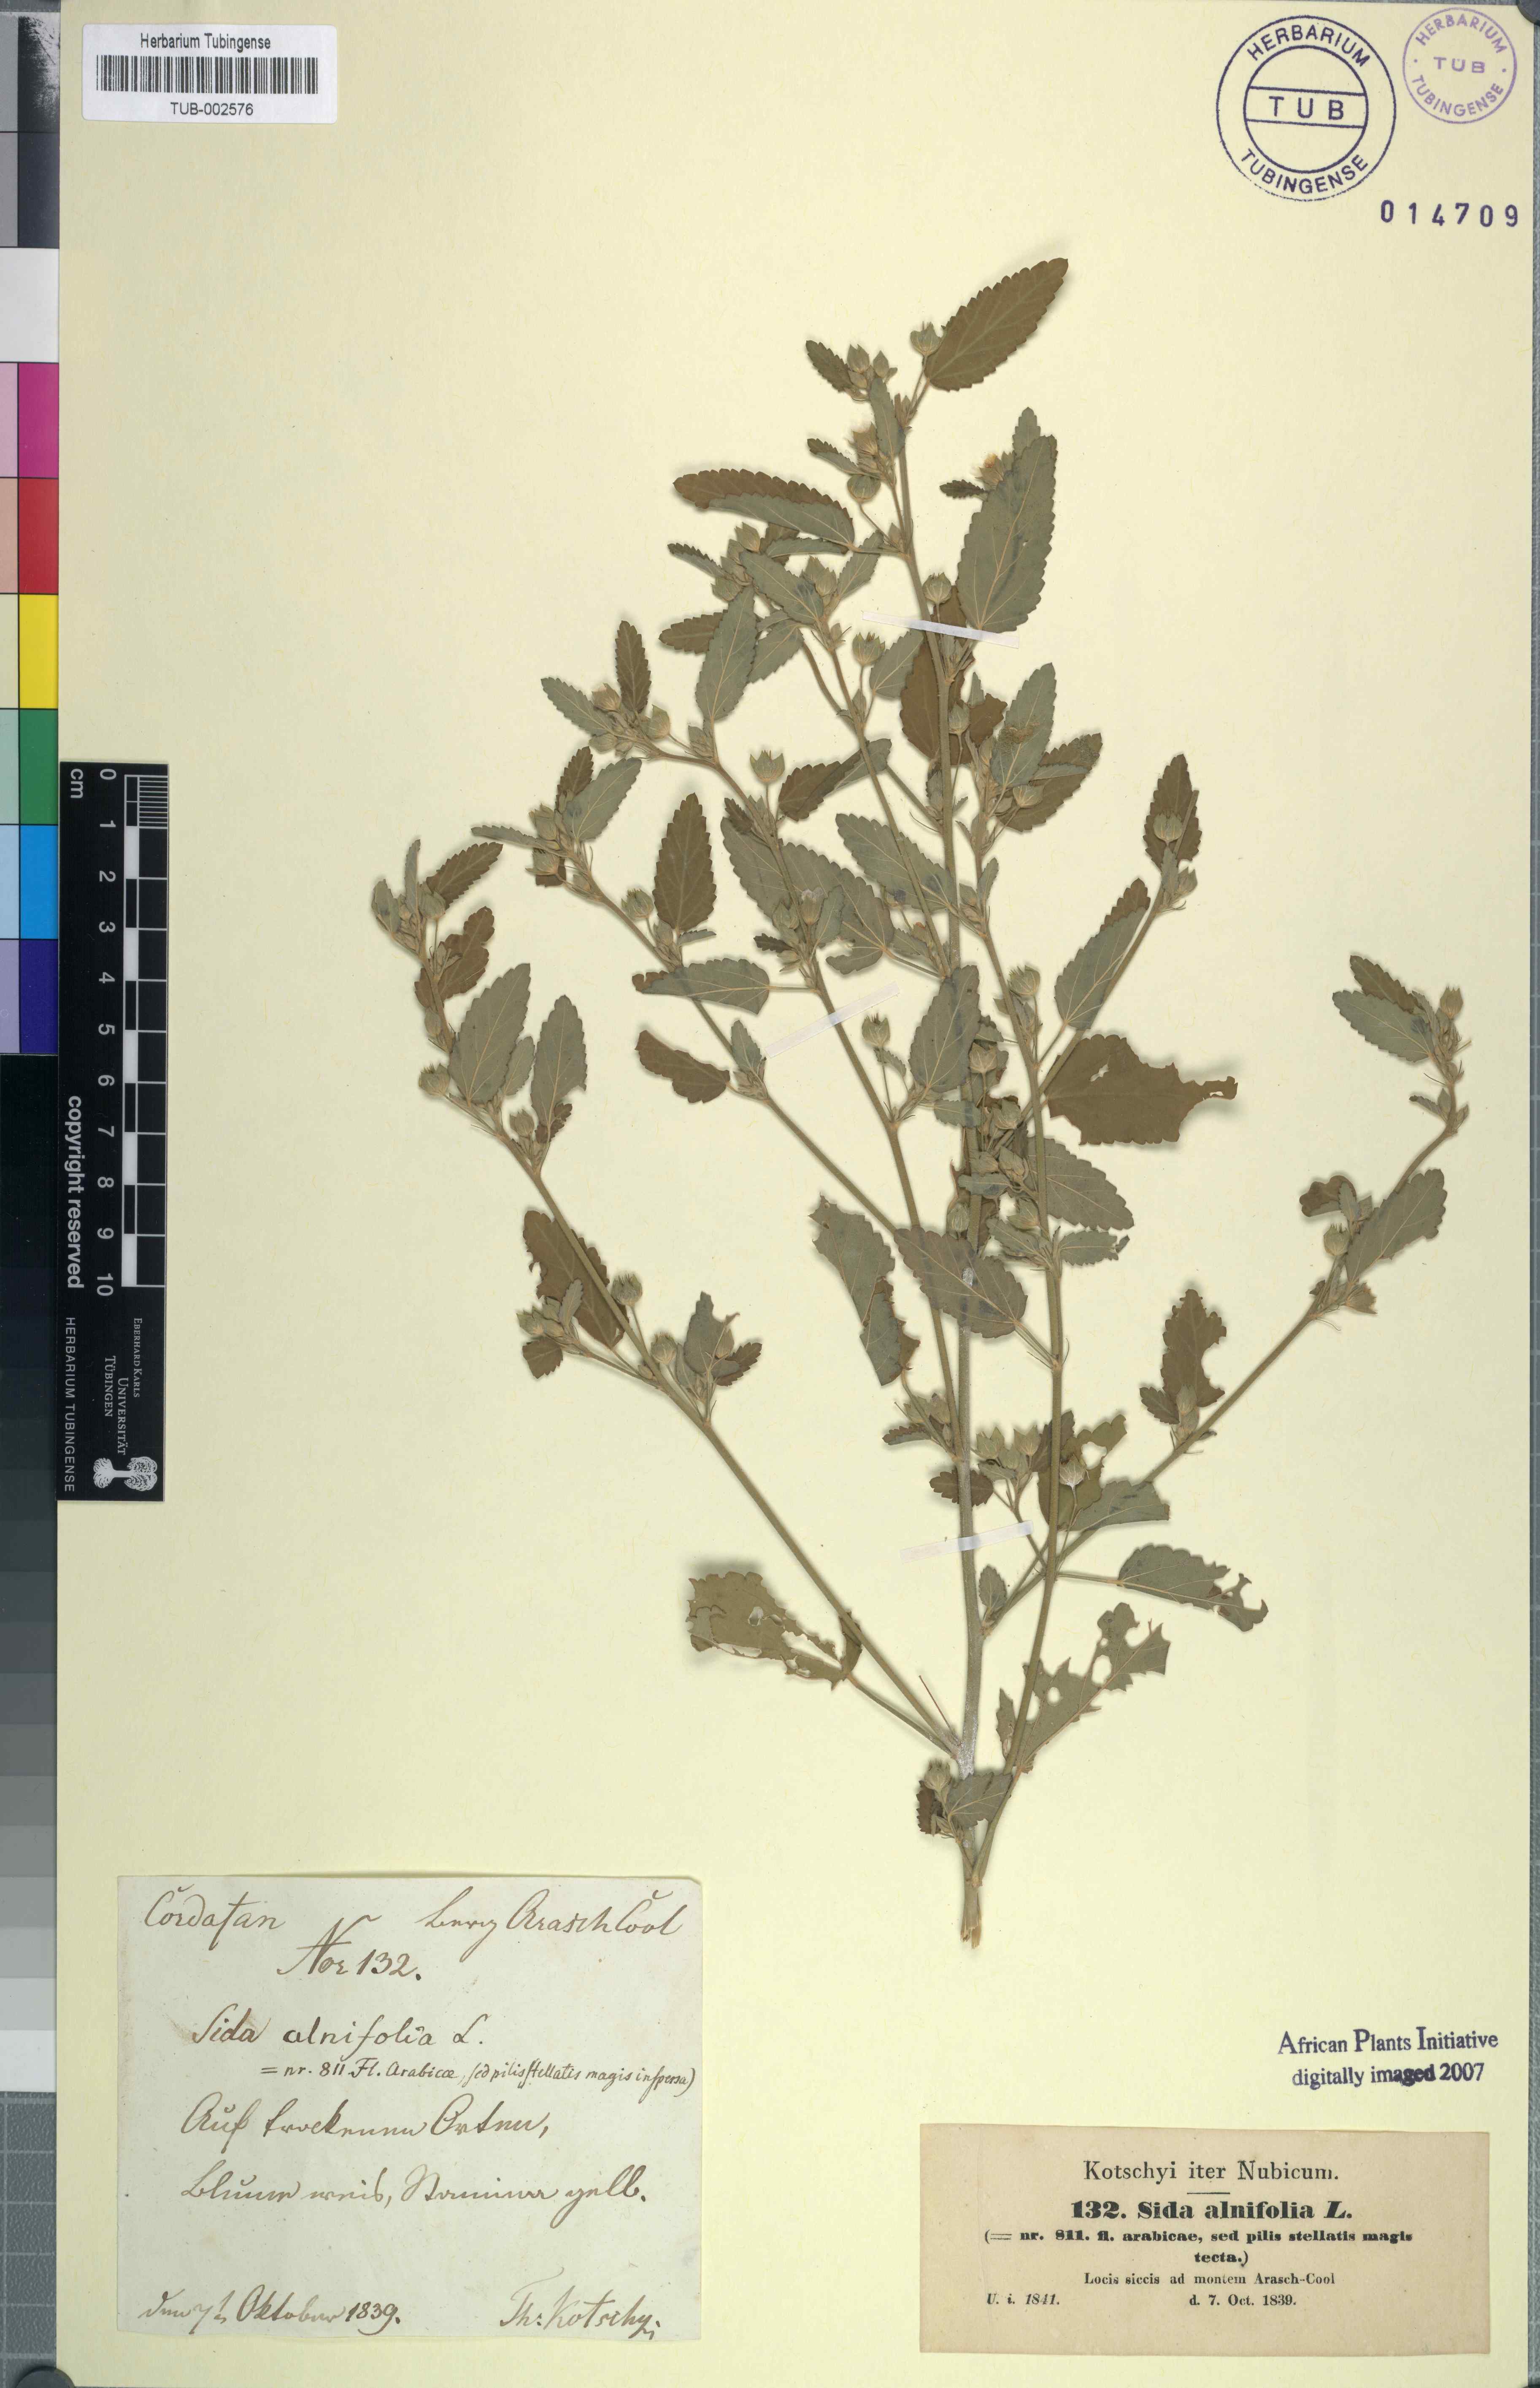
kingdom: Plantae
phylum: Tracheophyta
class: Magnoliopsida
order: Malvales
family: Malvaceae
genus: Sida
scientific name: Sida spinosa
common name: Prickly fanpetals
